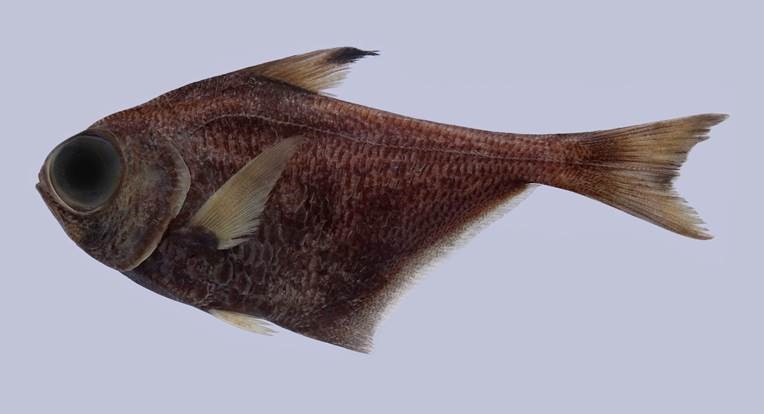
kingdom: Animalia
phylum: Chordata
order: Perciformes
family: Pempheridae
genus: Pempheris
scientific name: Pempheris
